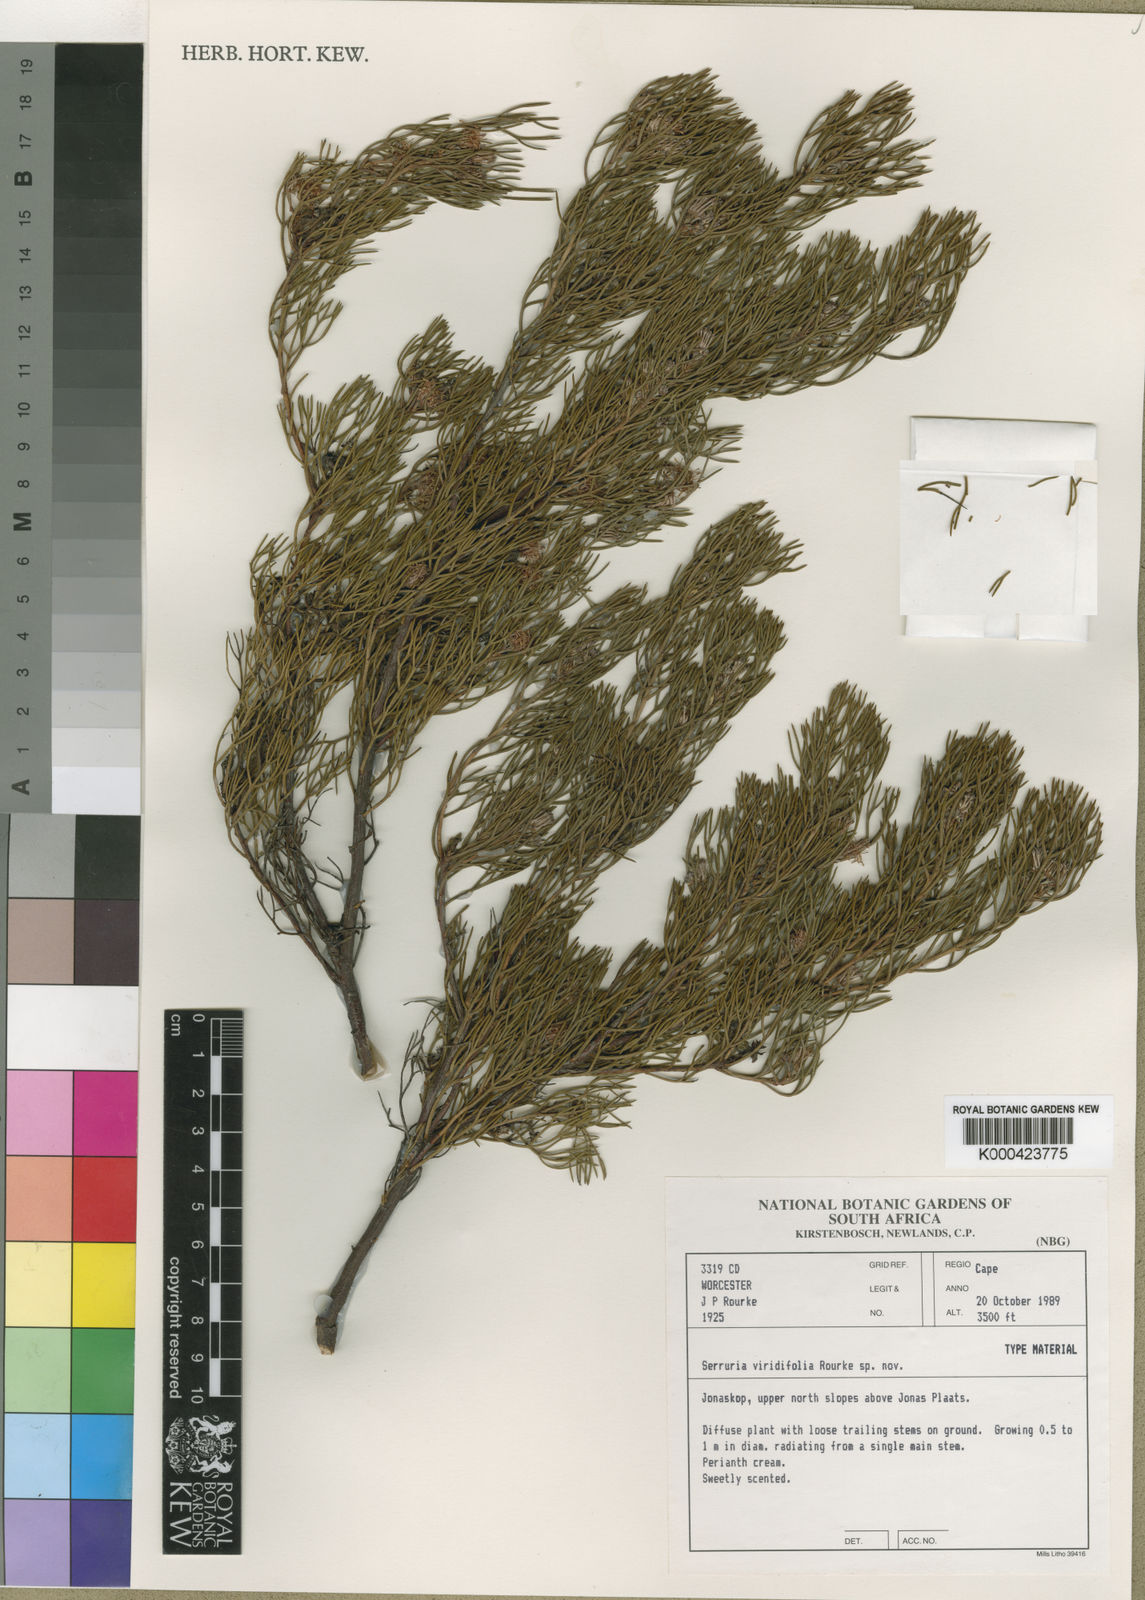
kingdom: Plantae
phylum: Tracheophyta
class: Magnoliopsida
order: Proteales
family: Proteaceae
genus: Serruria
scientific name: Serruria viridifolia
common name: Mat spiderhead
